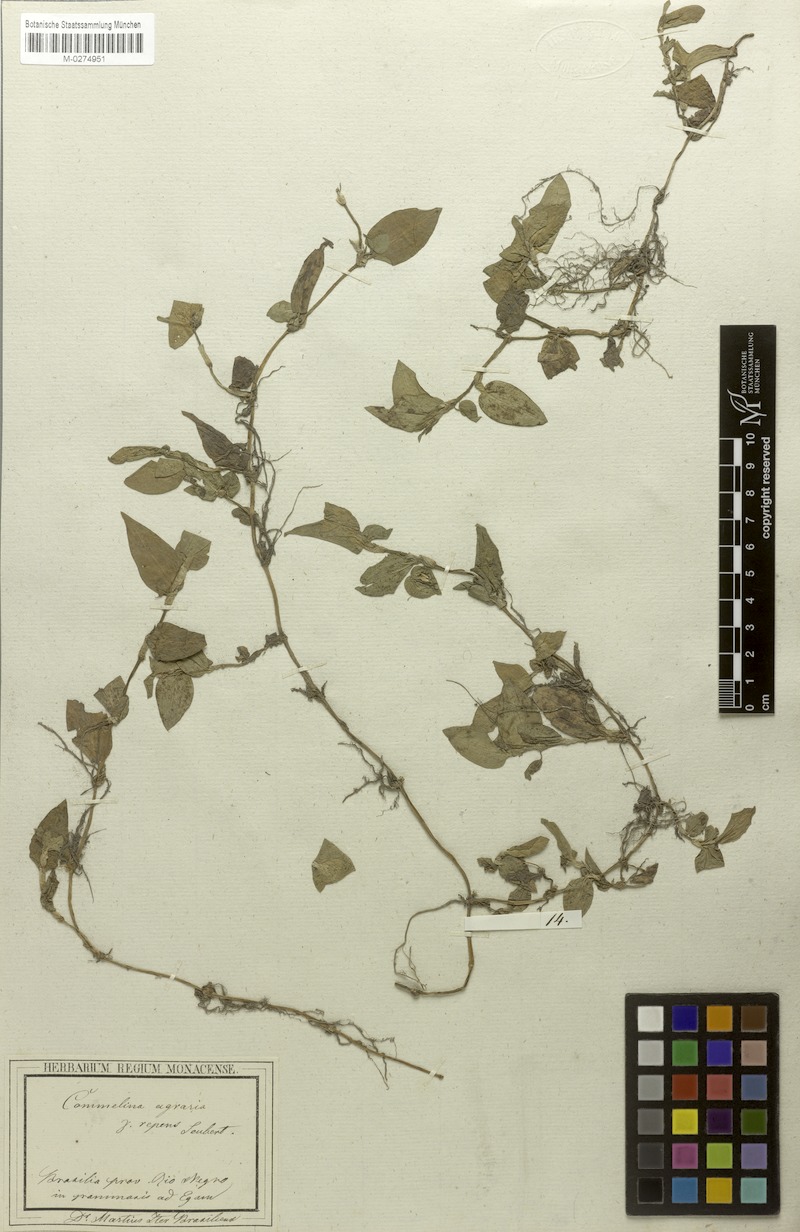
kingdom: Plantae
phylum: Tracheophyta
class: Liliopsida
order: Commelinales
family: Commelinaceae
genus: Commelina
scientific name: Commelina diffusa
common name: Climbing dayflower
